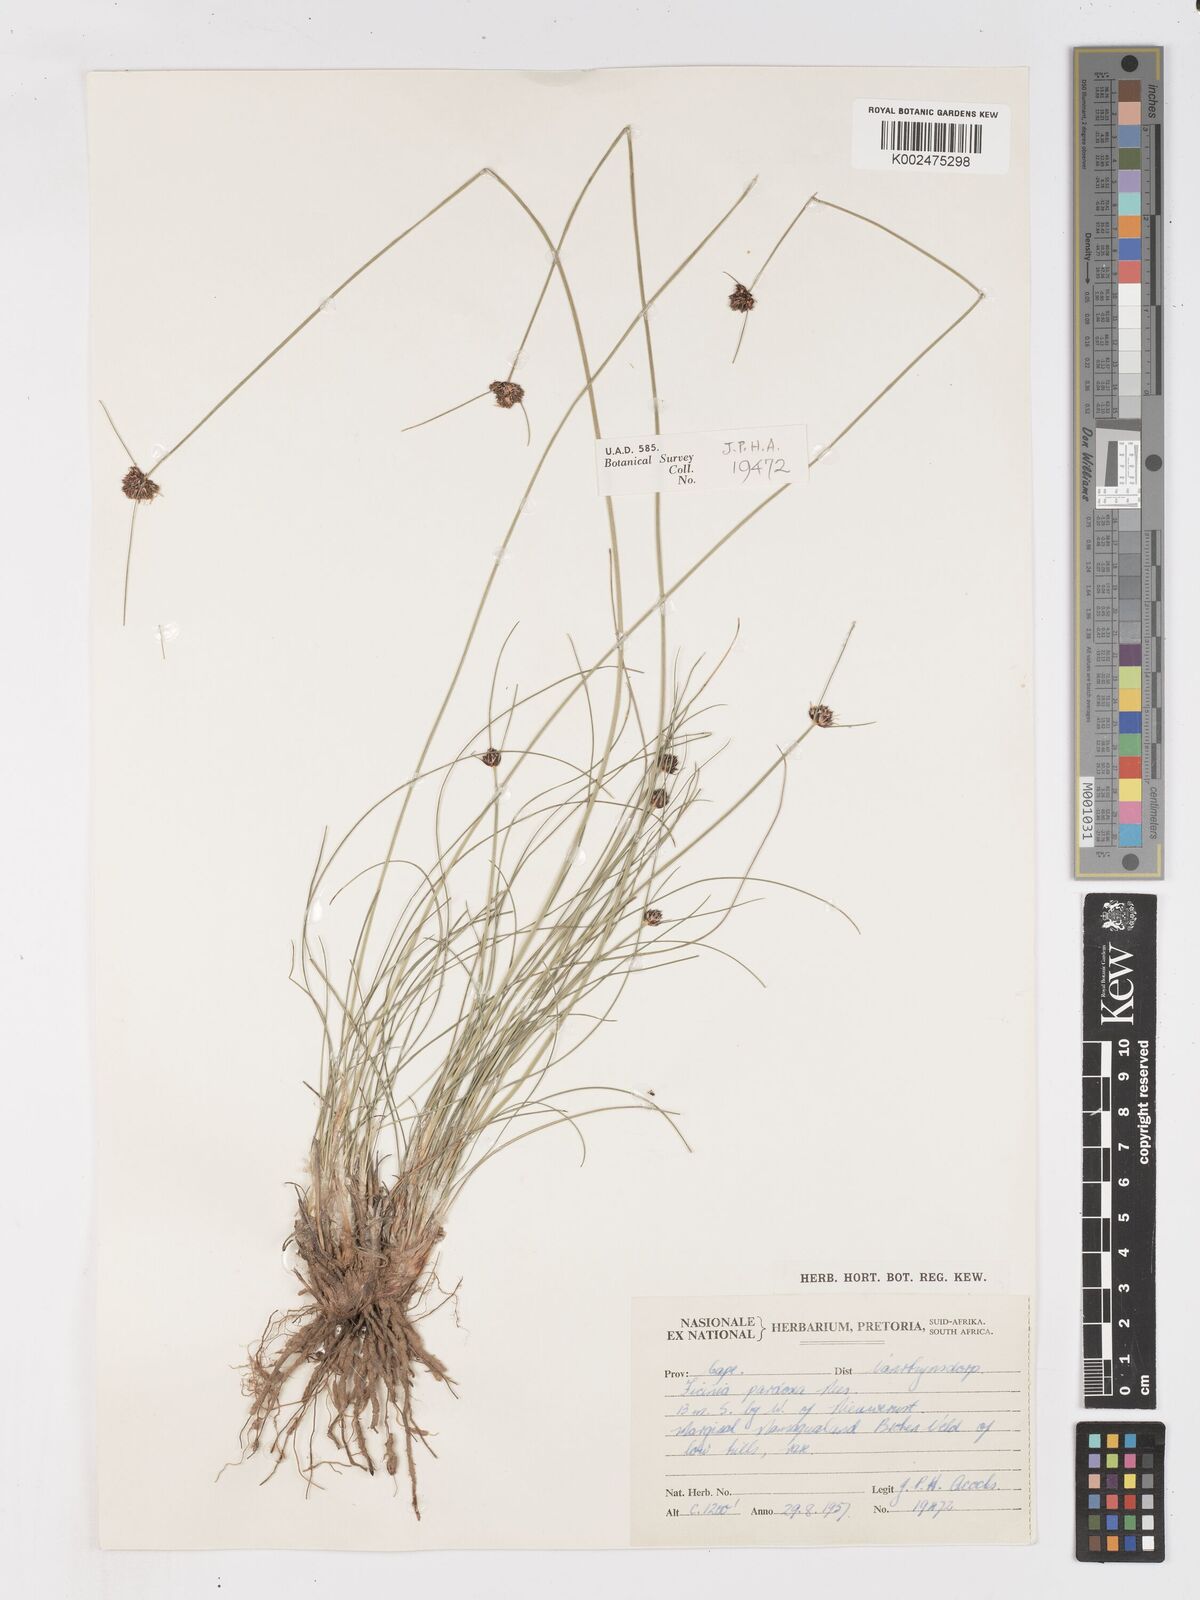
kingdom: Plantae
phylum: Tracheophyta
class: Liliopsida
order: Poales
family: Cyperaceae
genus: Ficinia
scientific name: Ficinia paradoxa
